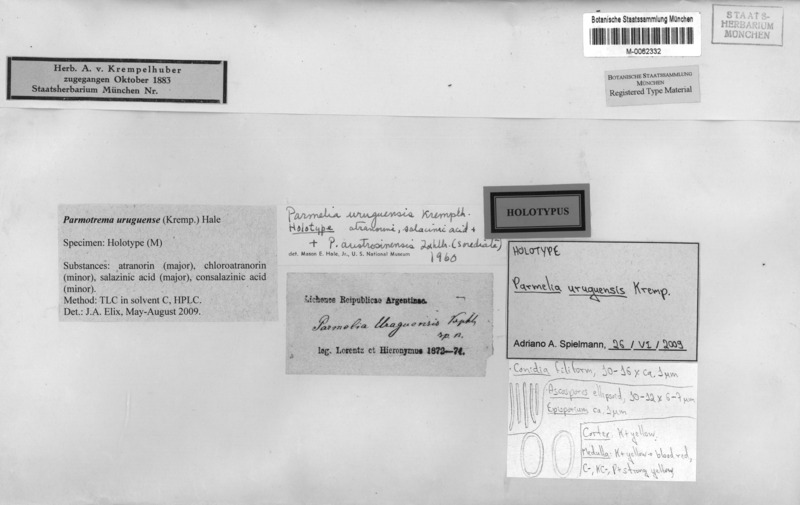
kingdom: Fungi
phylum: Ascomycota
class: Lecanoromycetes
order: Lecanorales
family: Parmeliaceae
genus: Parmotrema
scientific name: Parmotrema uruguense
